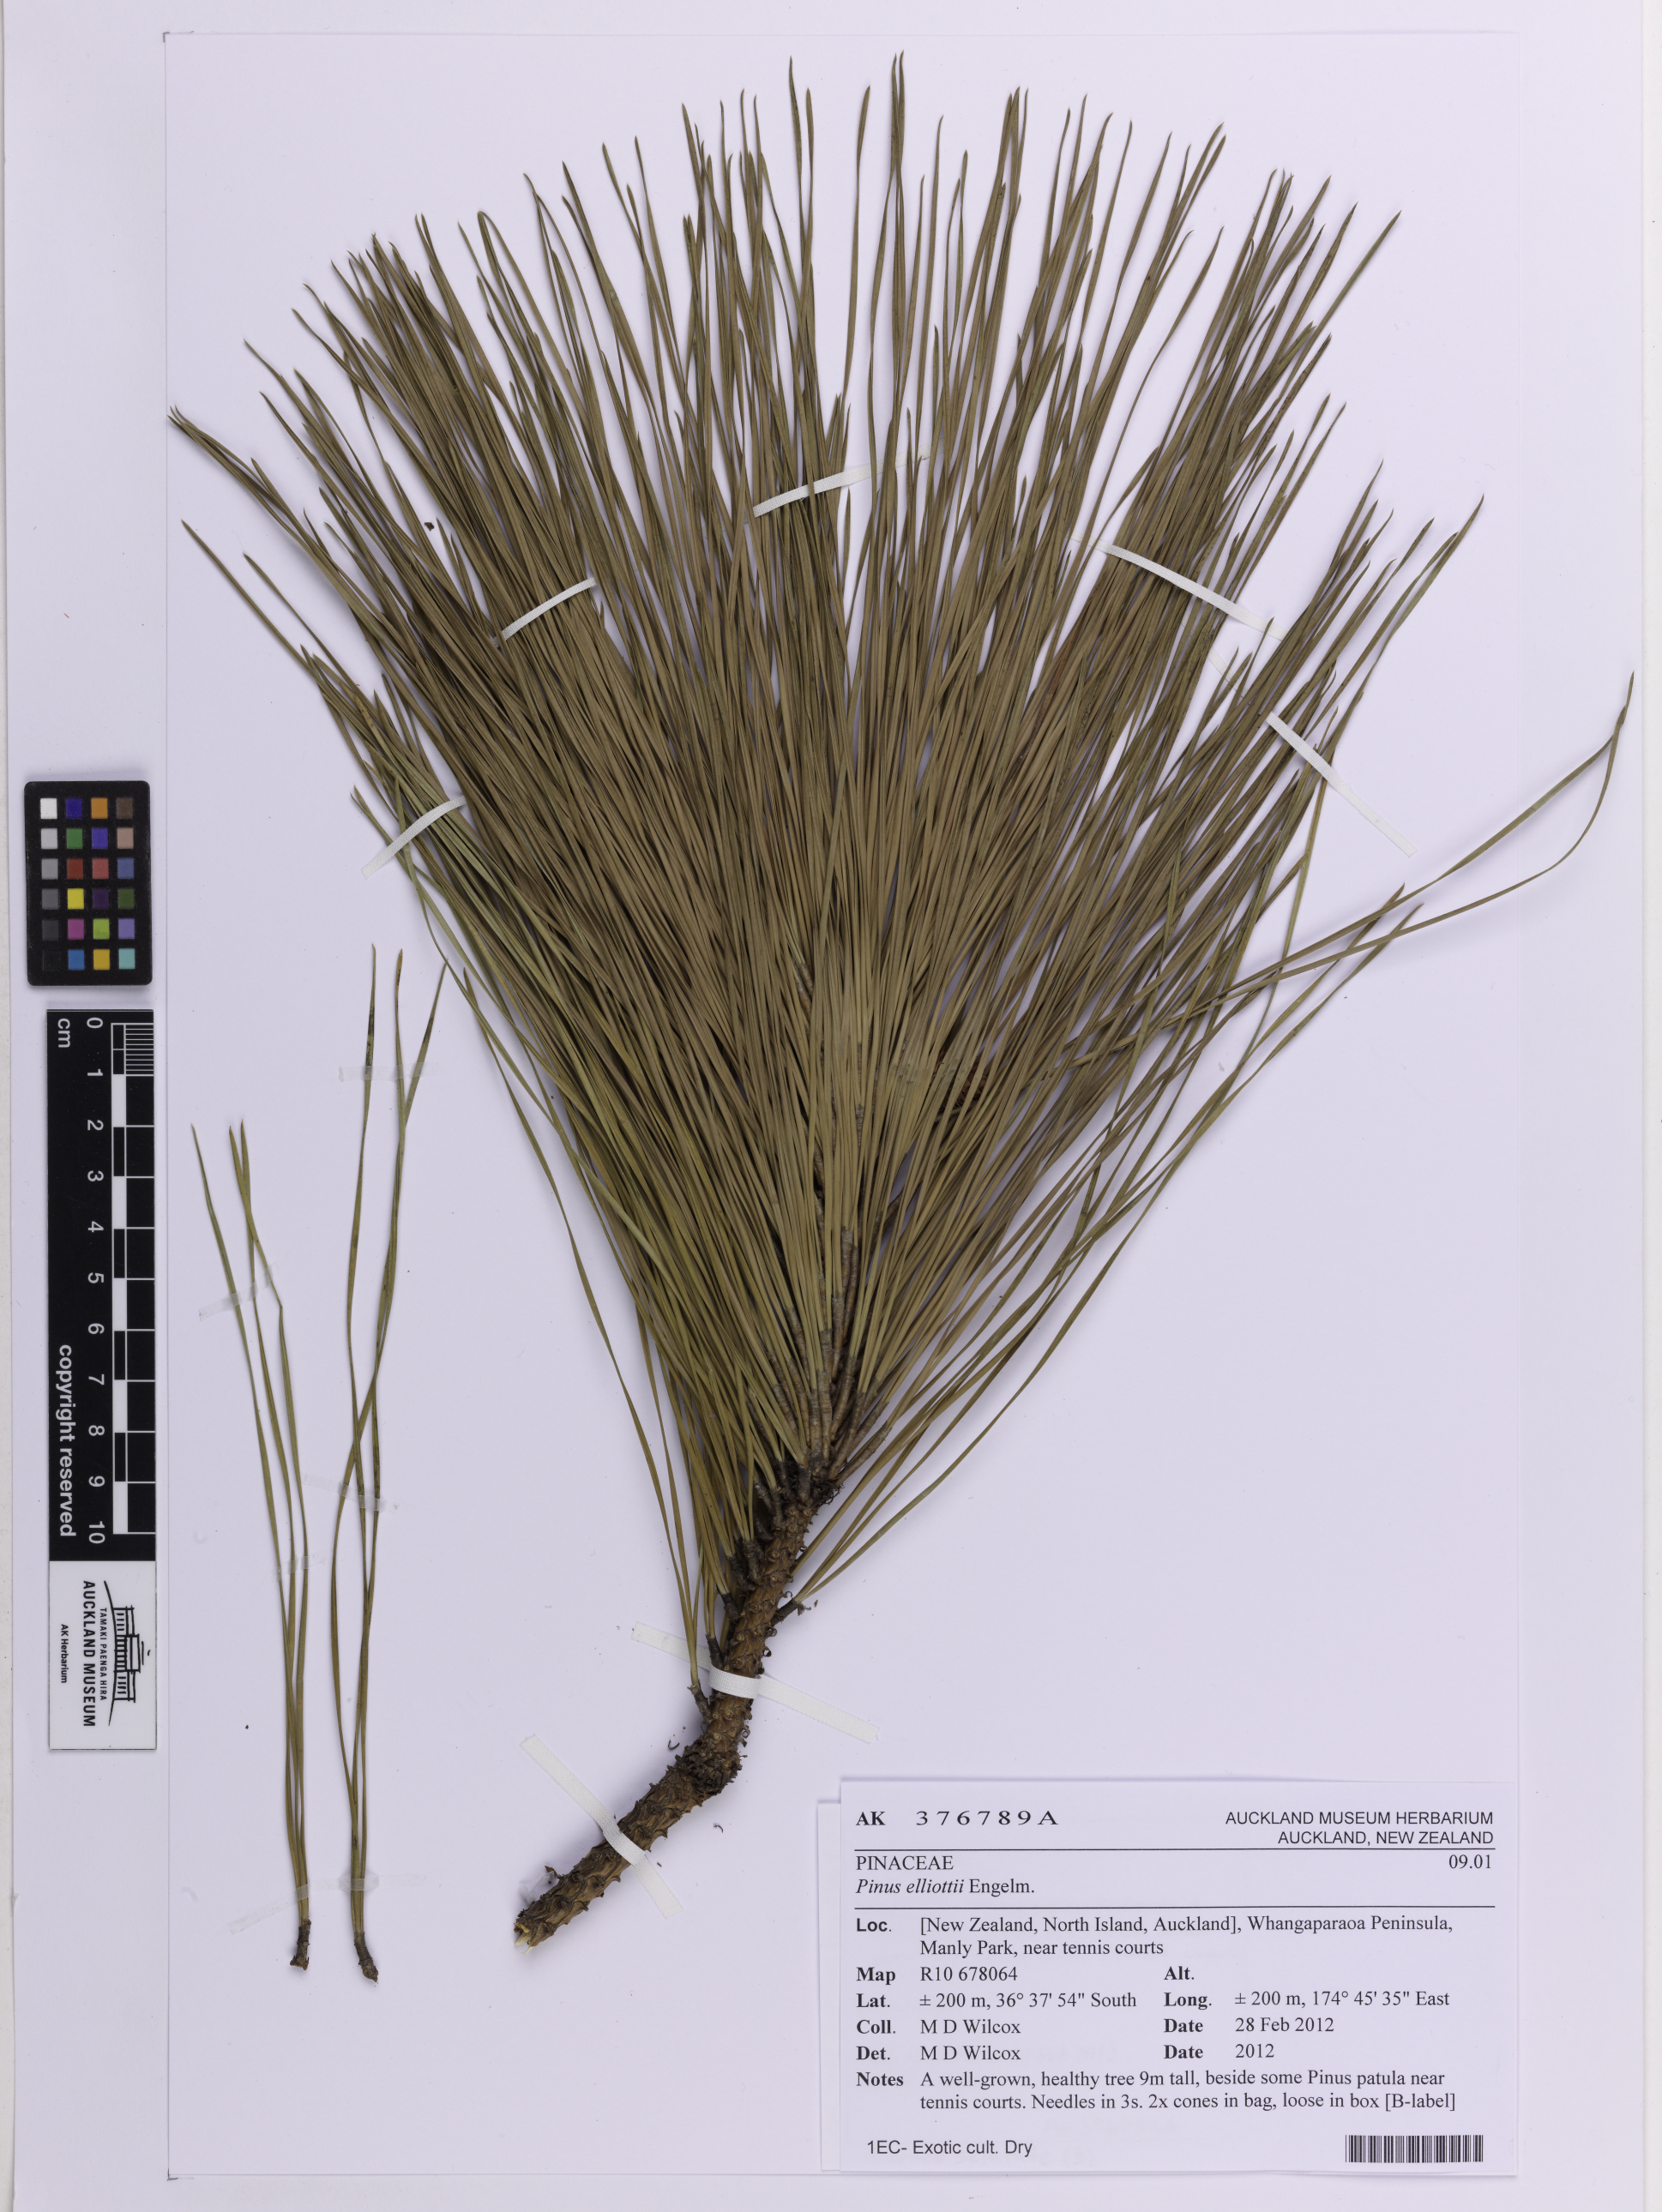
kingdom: Plantae
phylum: Tracheophyta
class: Pinopsida
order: Pinales
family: Pinaceae
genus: Pinus
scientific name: Pinus elliottii
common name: Slash pine
